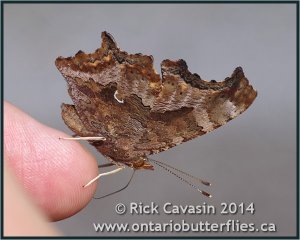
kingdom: Animalia
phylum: Arthropoda
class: Insecta
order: Lepidoptera
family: Nymphalidae
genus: Polygonia
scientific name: Polygonia comma
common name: Eastern Comma
